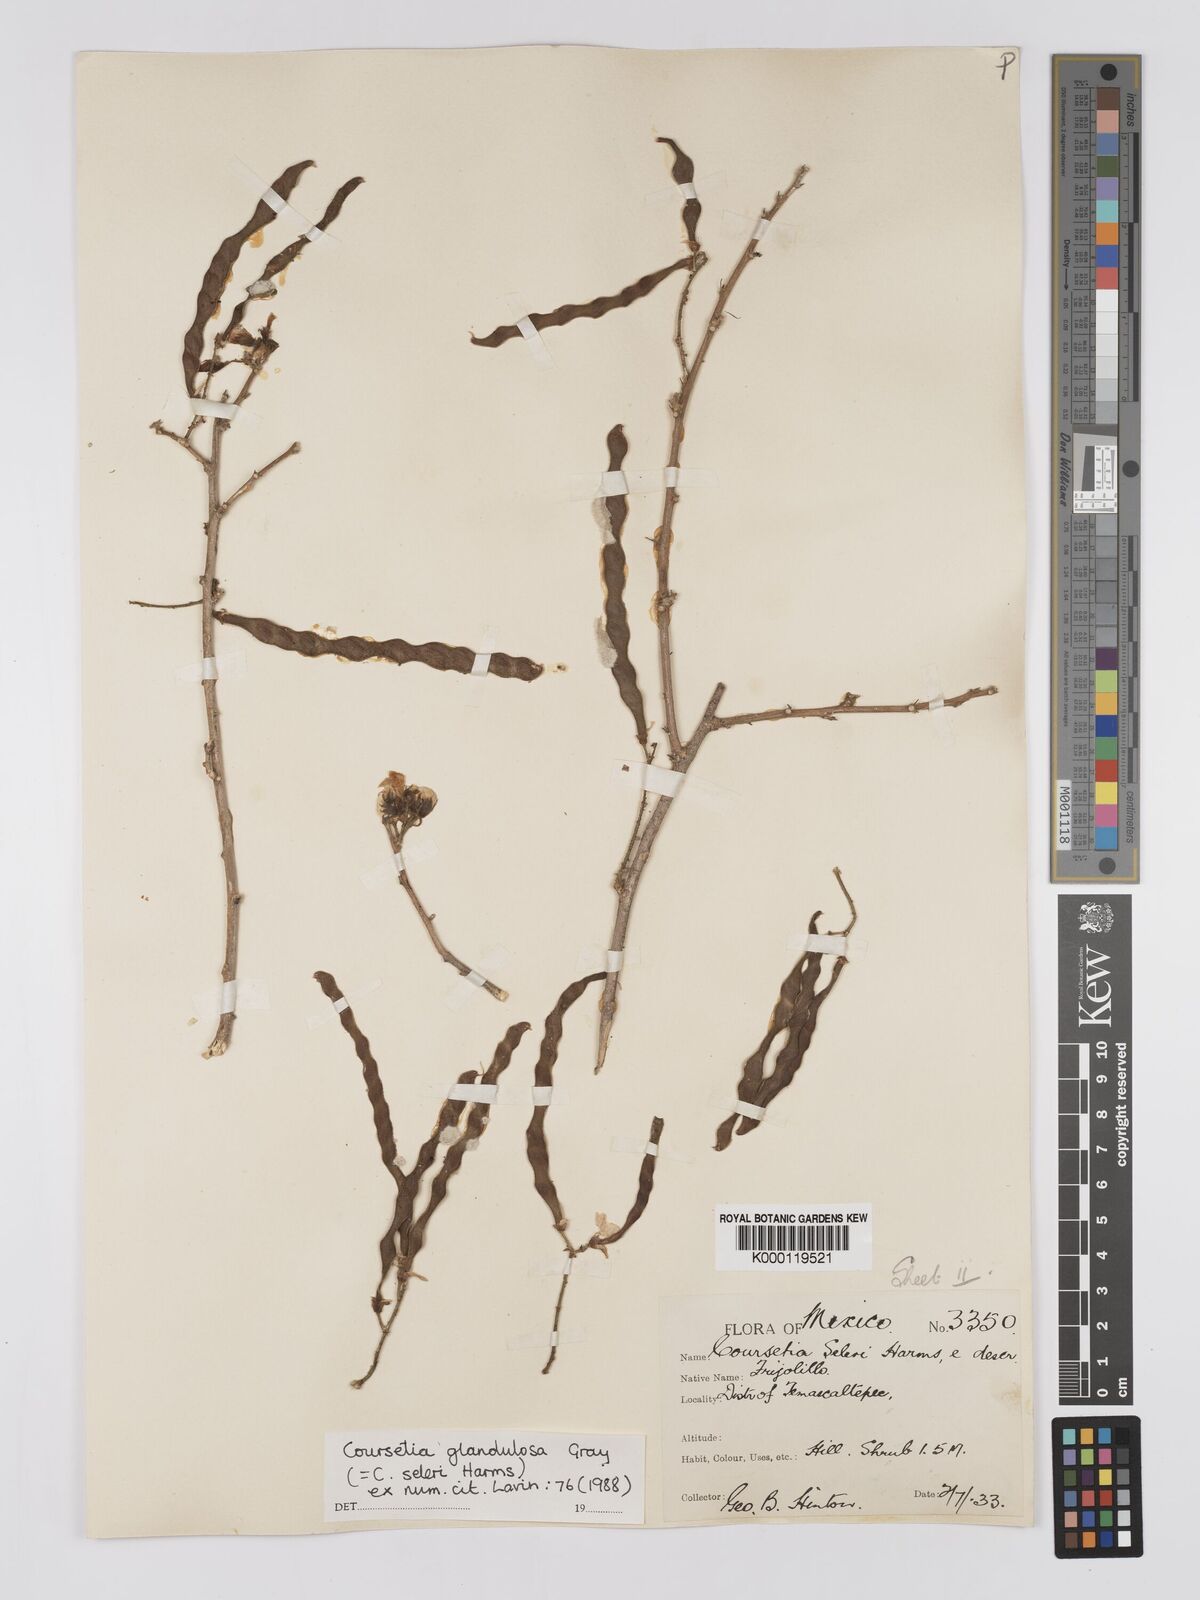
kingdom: Plantae
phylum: Tracheophyta
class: Magnoliopsida
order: Fabales
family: Fabaceae
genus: Coursetia
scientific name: Coursetia glandulosa
